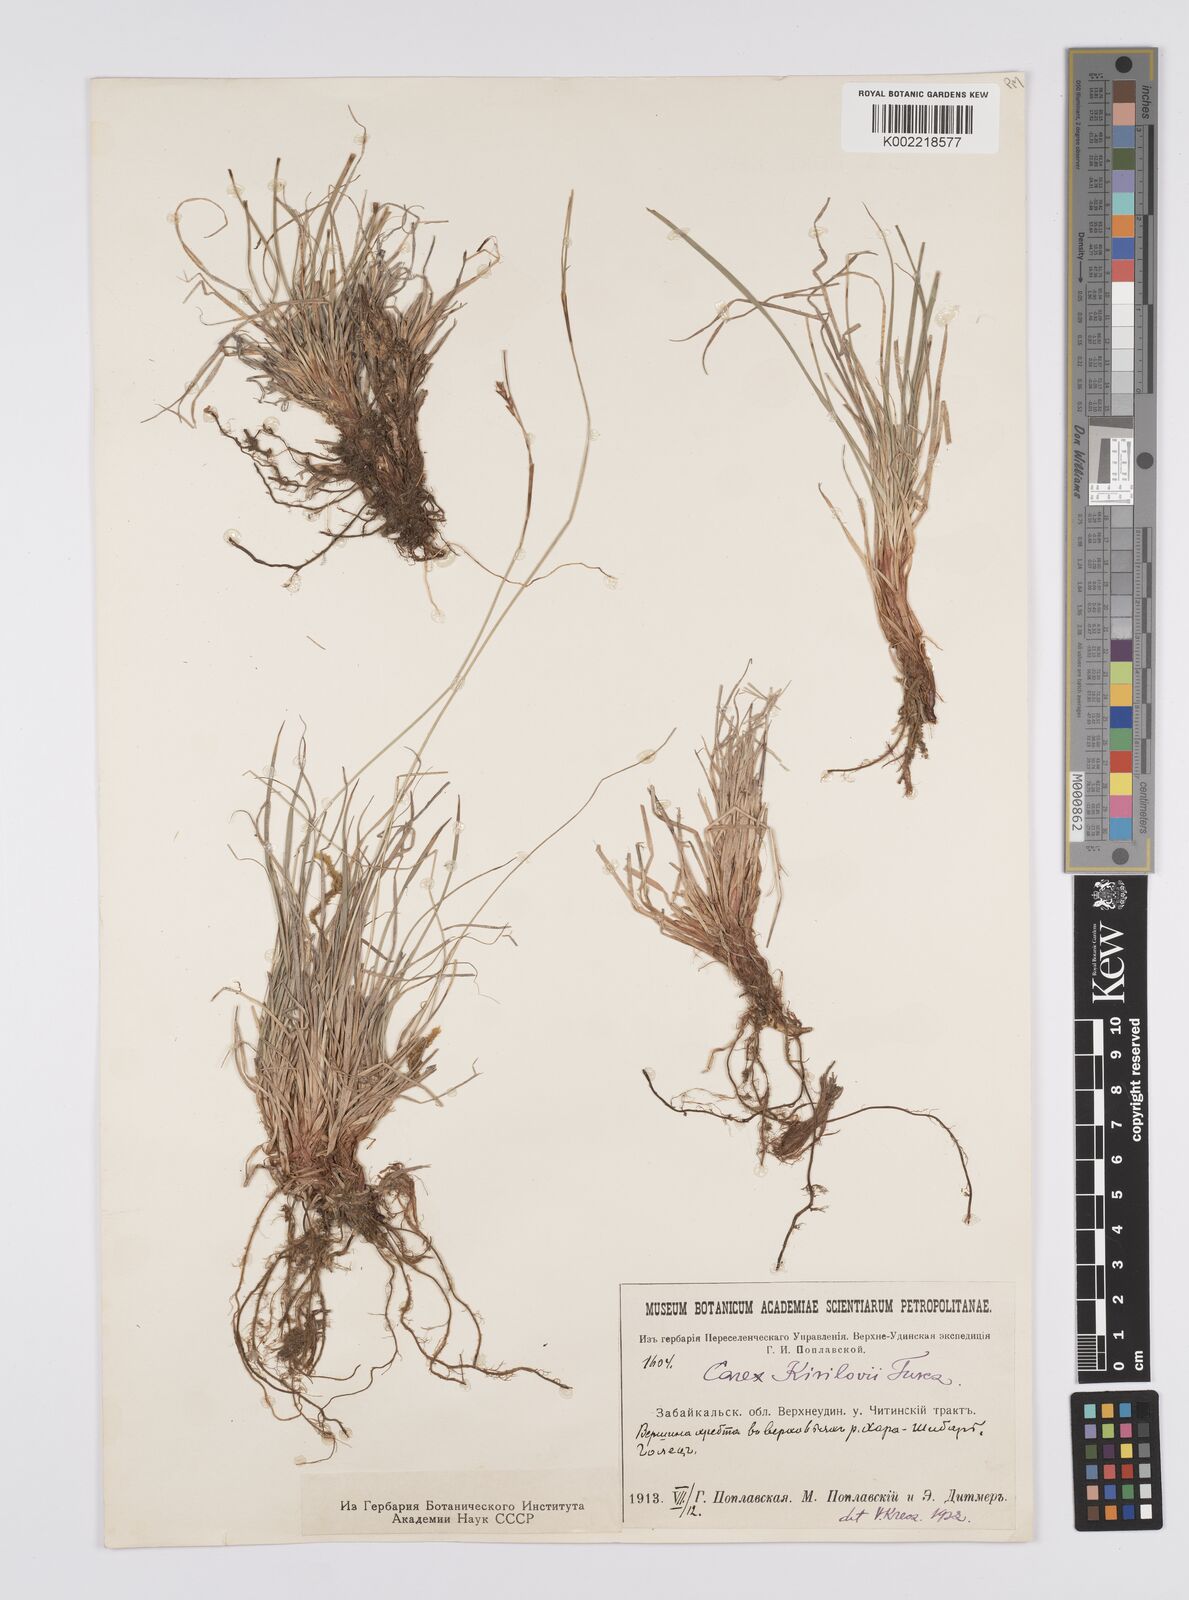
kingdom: Plantae
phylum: Tracheophyta
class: Liliopsida
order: Poales
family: Cyperaceae
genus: Carex
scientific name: Carex pediformis
